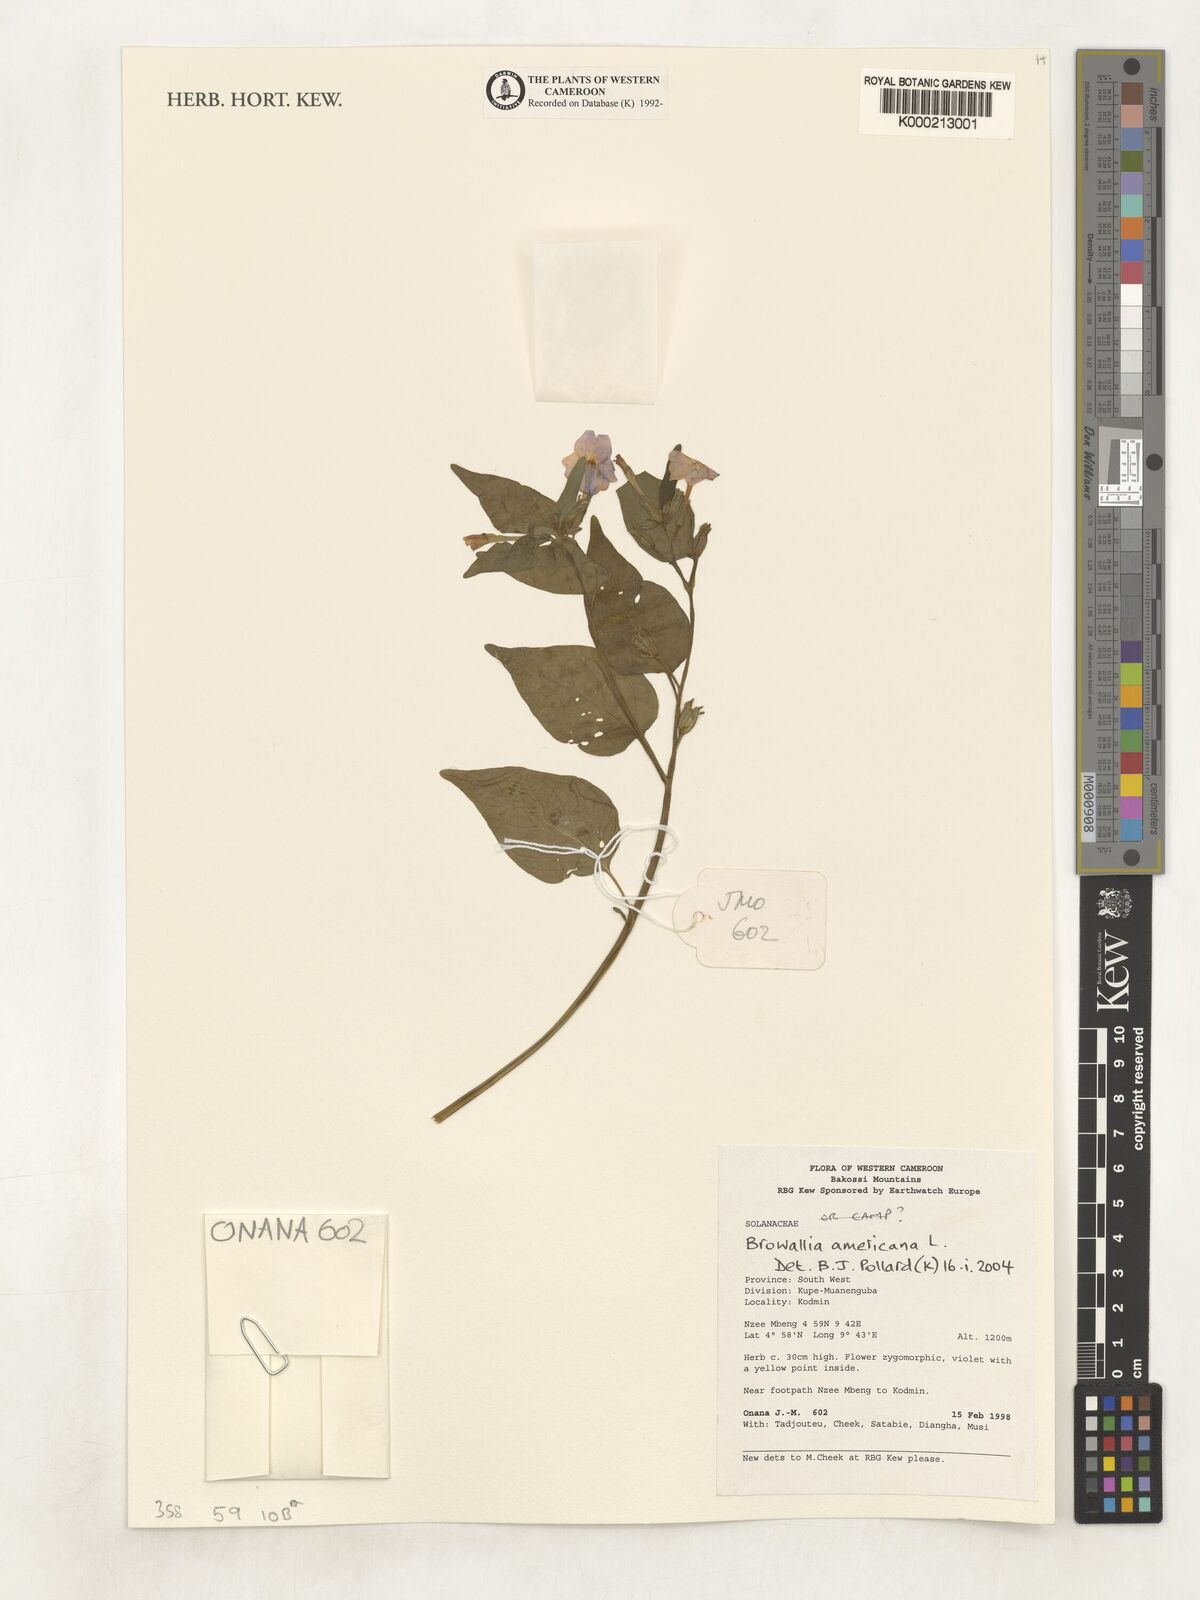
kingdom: Plantae
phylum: Tracheophyta
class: Magnoliopsida
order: Solanales
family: Solanaceae
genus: Browallia
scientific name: Browallia americana
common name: Jamaican forget-me-not
